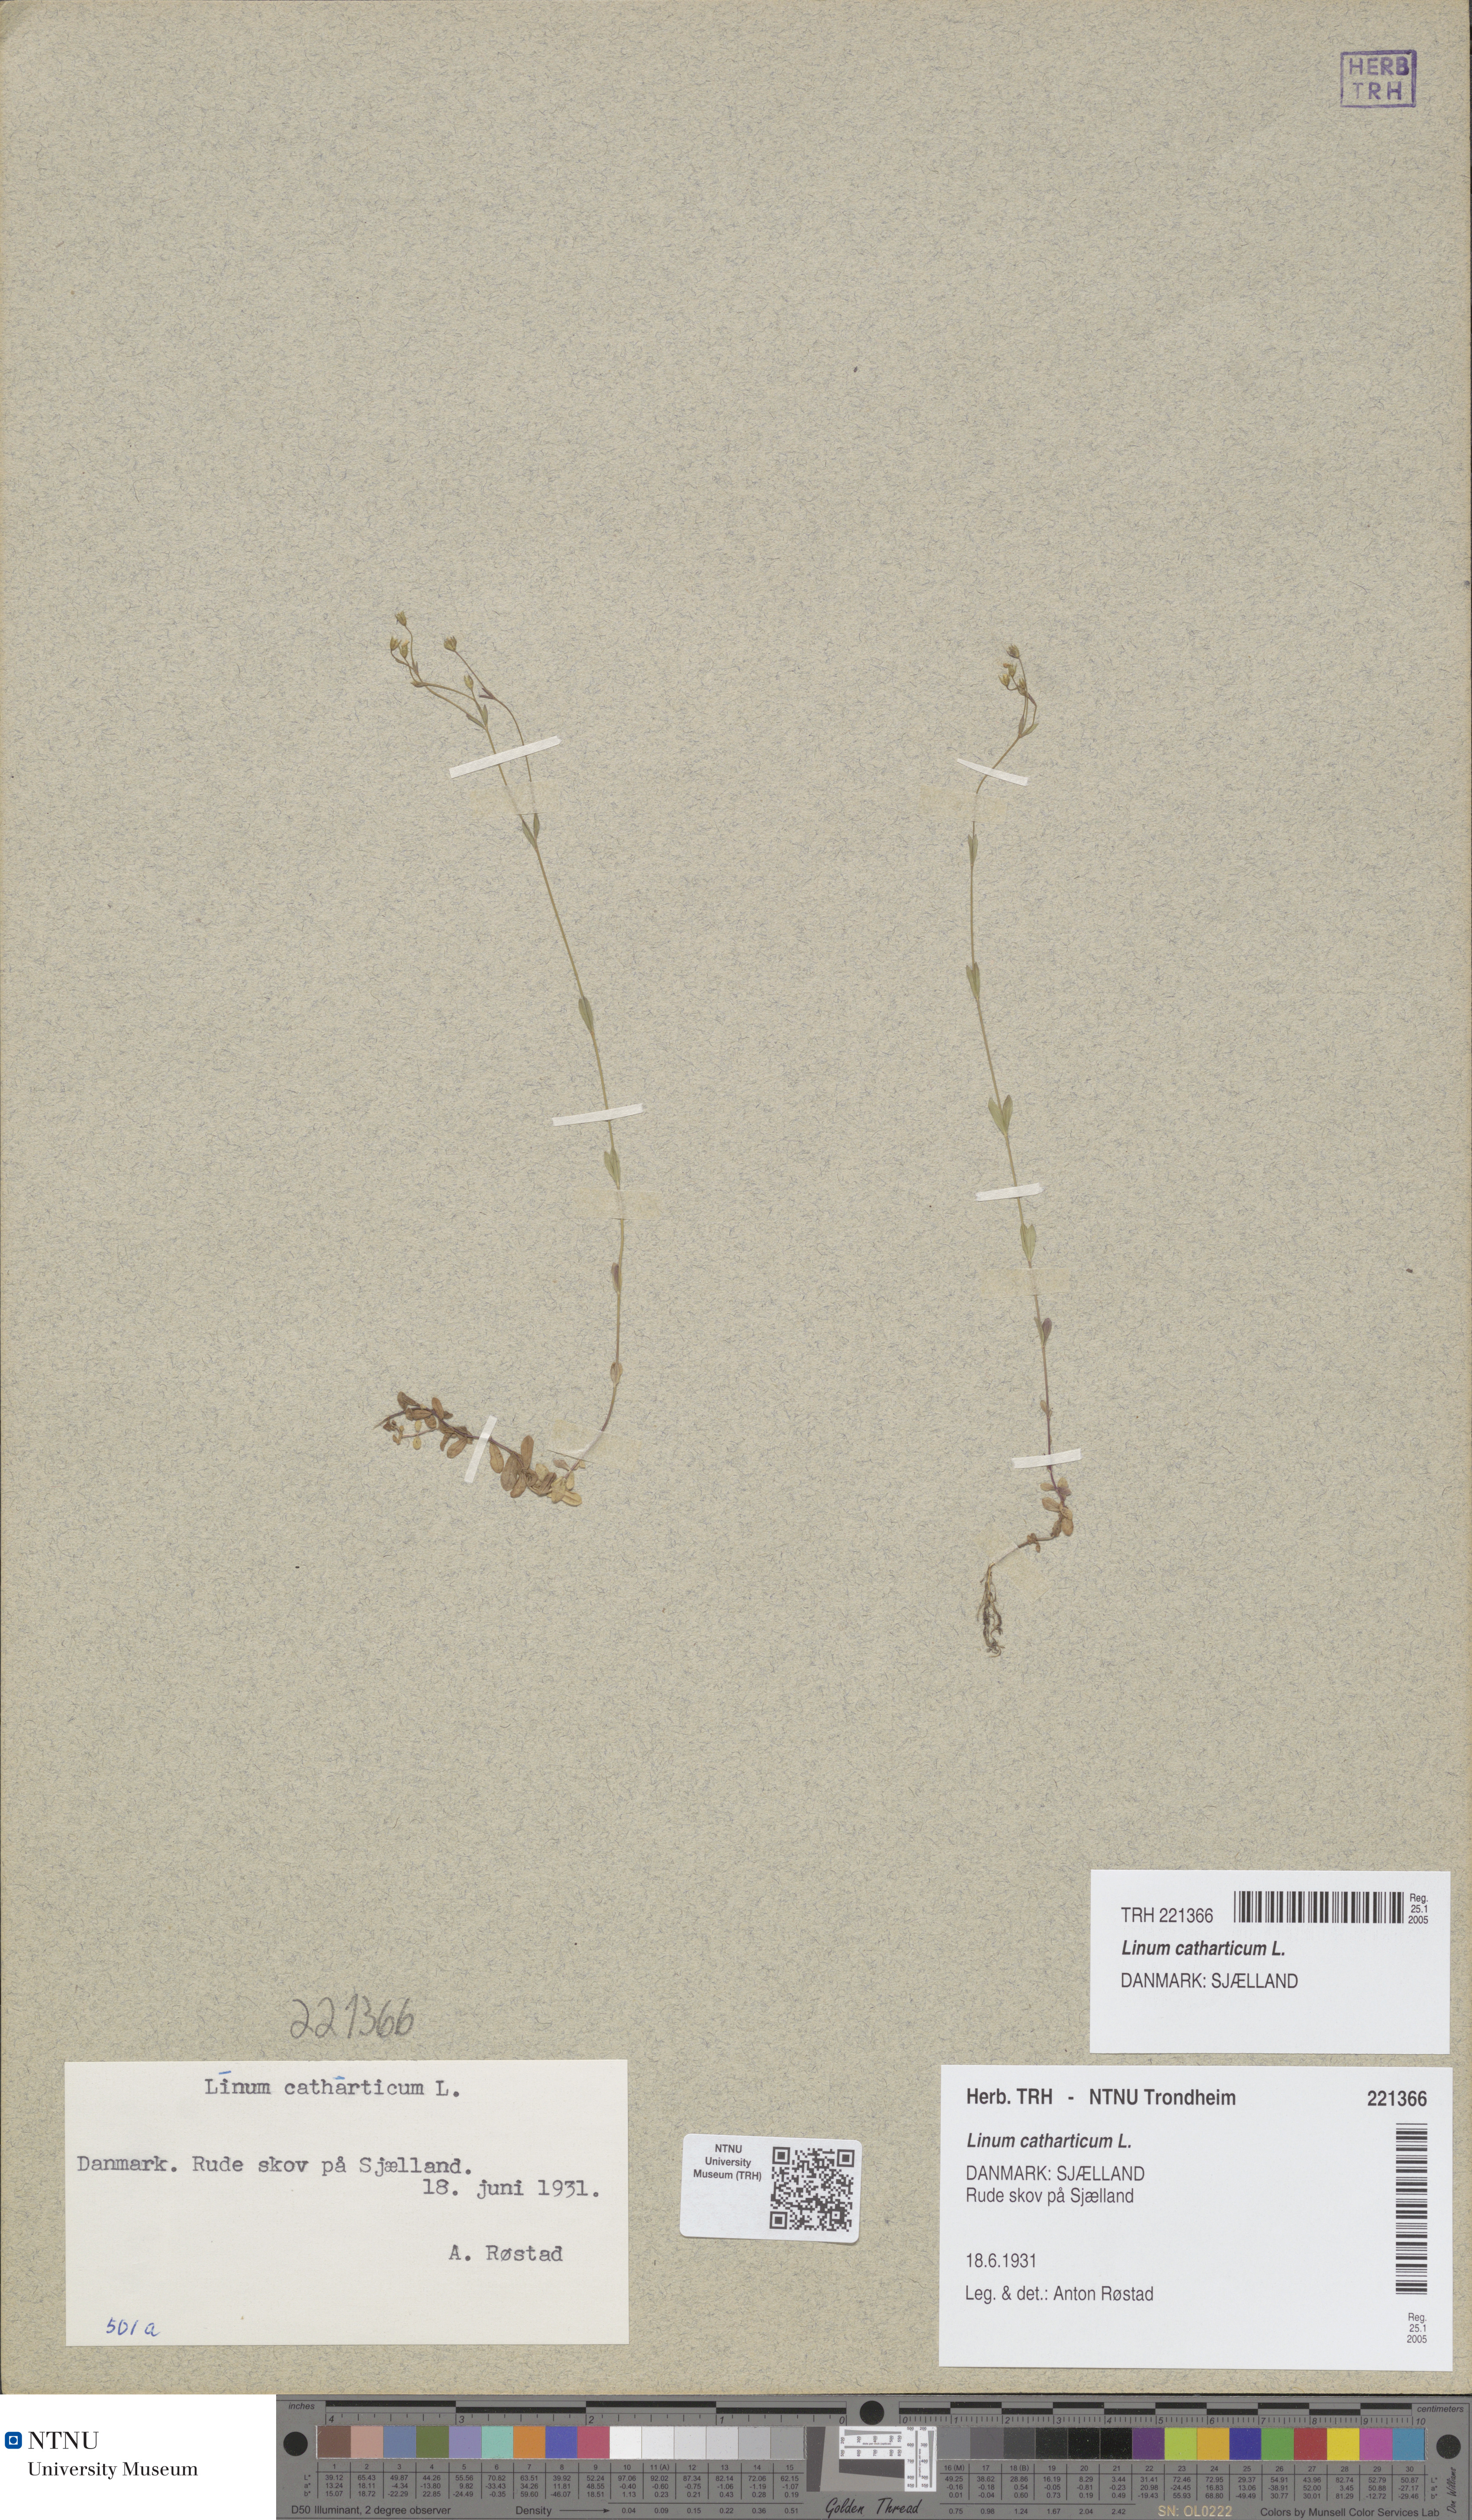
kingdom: Plantae
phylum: Tracheophyta
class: Magnoliopsida
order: Malpighiales
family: Linaceae
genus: Linum
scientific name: Linum catharticum
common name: Fairy flax
